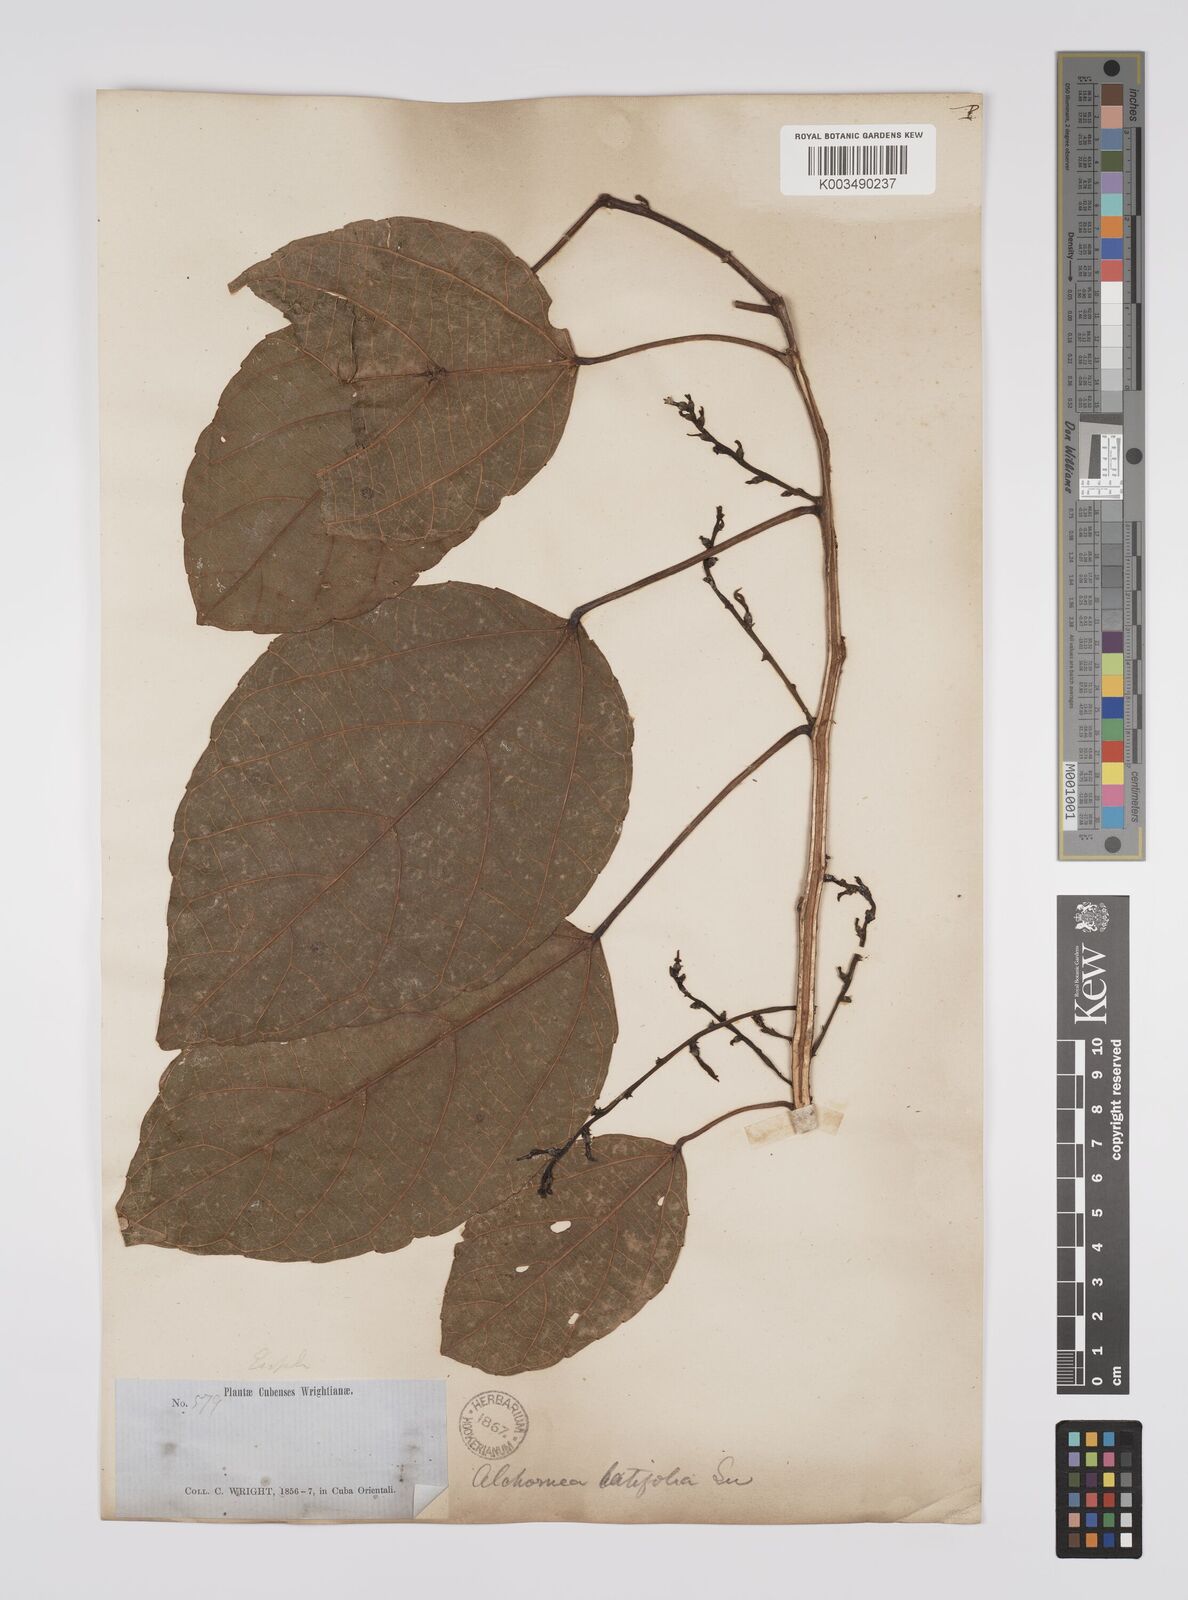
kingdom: Plantae
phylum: Tracheophyta
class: Magnoliopsida
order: Malpighiales
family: Euphorbiaceae
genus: Alchornea
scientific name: Alchornea latifolia
